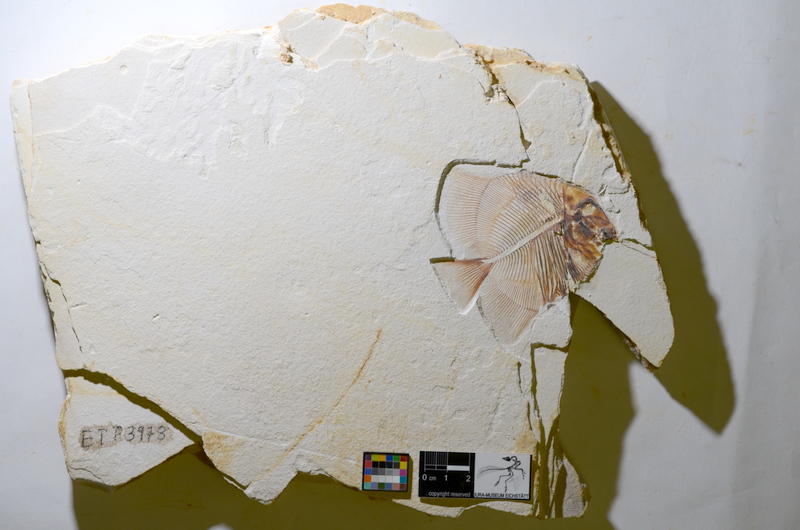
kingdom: Animalia
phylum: Chordata
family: Pycnodontidae
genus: Turbomesodon
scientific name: Turbomesodon relegans
